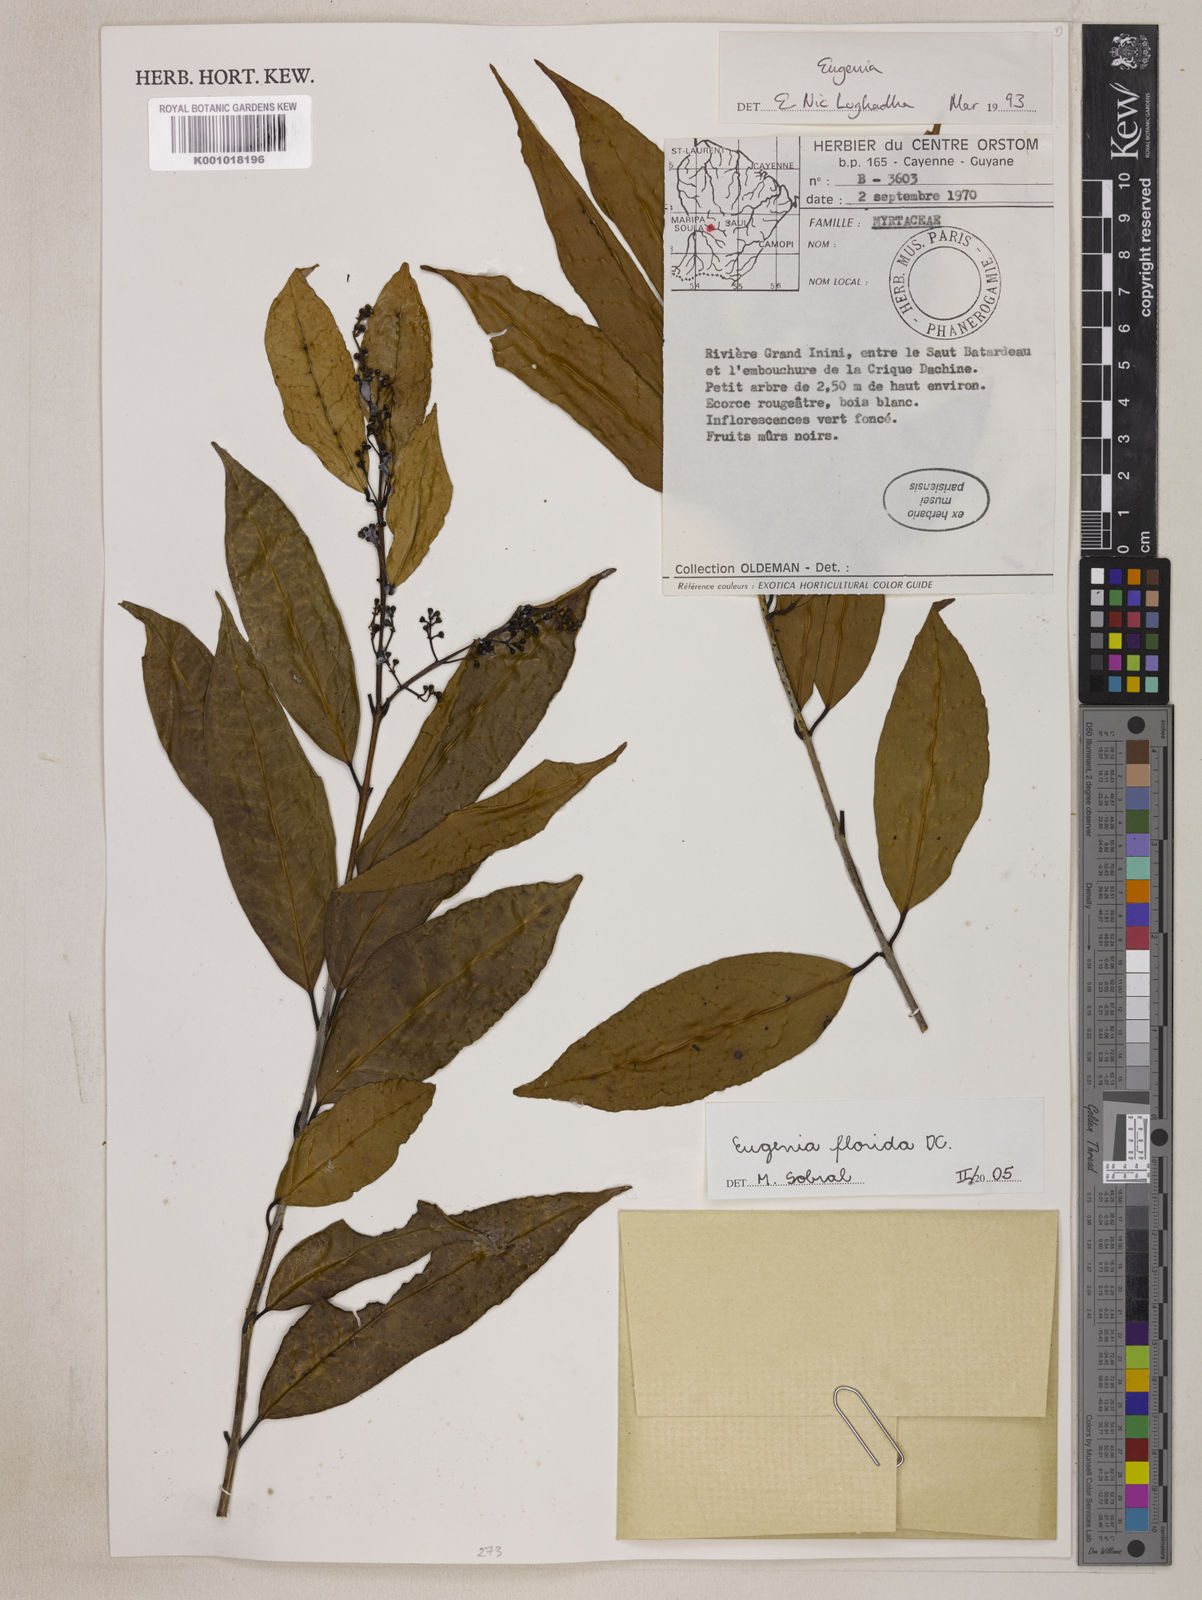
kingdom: Plantae
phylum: Tracheophyta
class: Magnoliopsida
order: Myrtales
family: Myrtaceae
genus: Eugenia
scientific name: Eugenia florida
